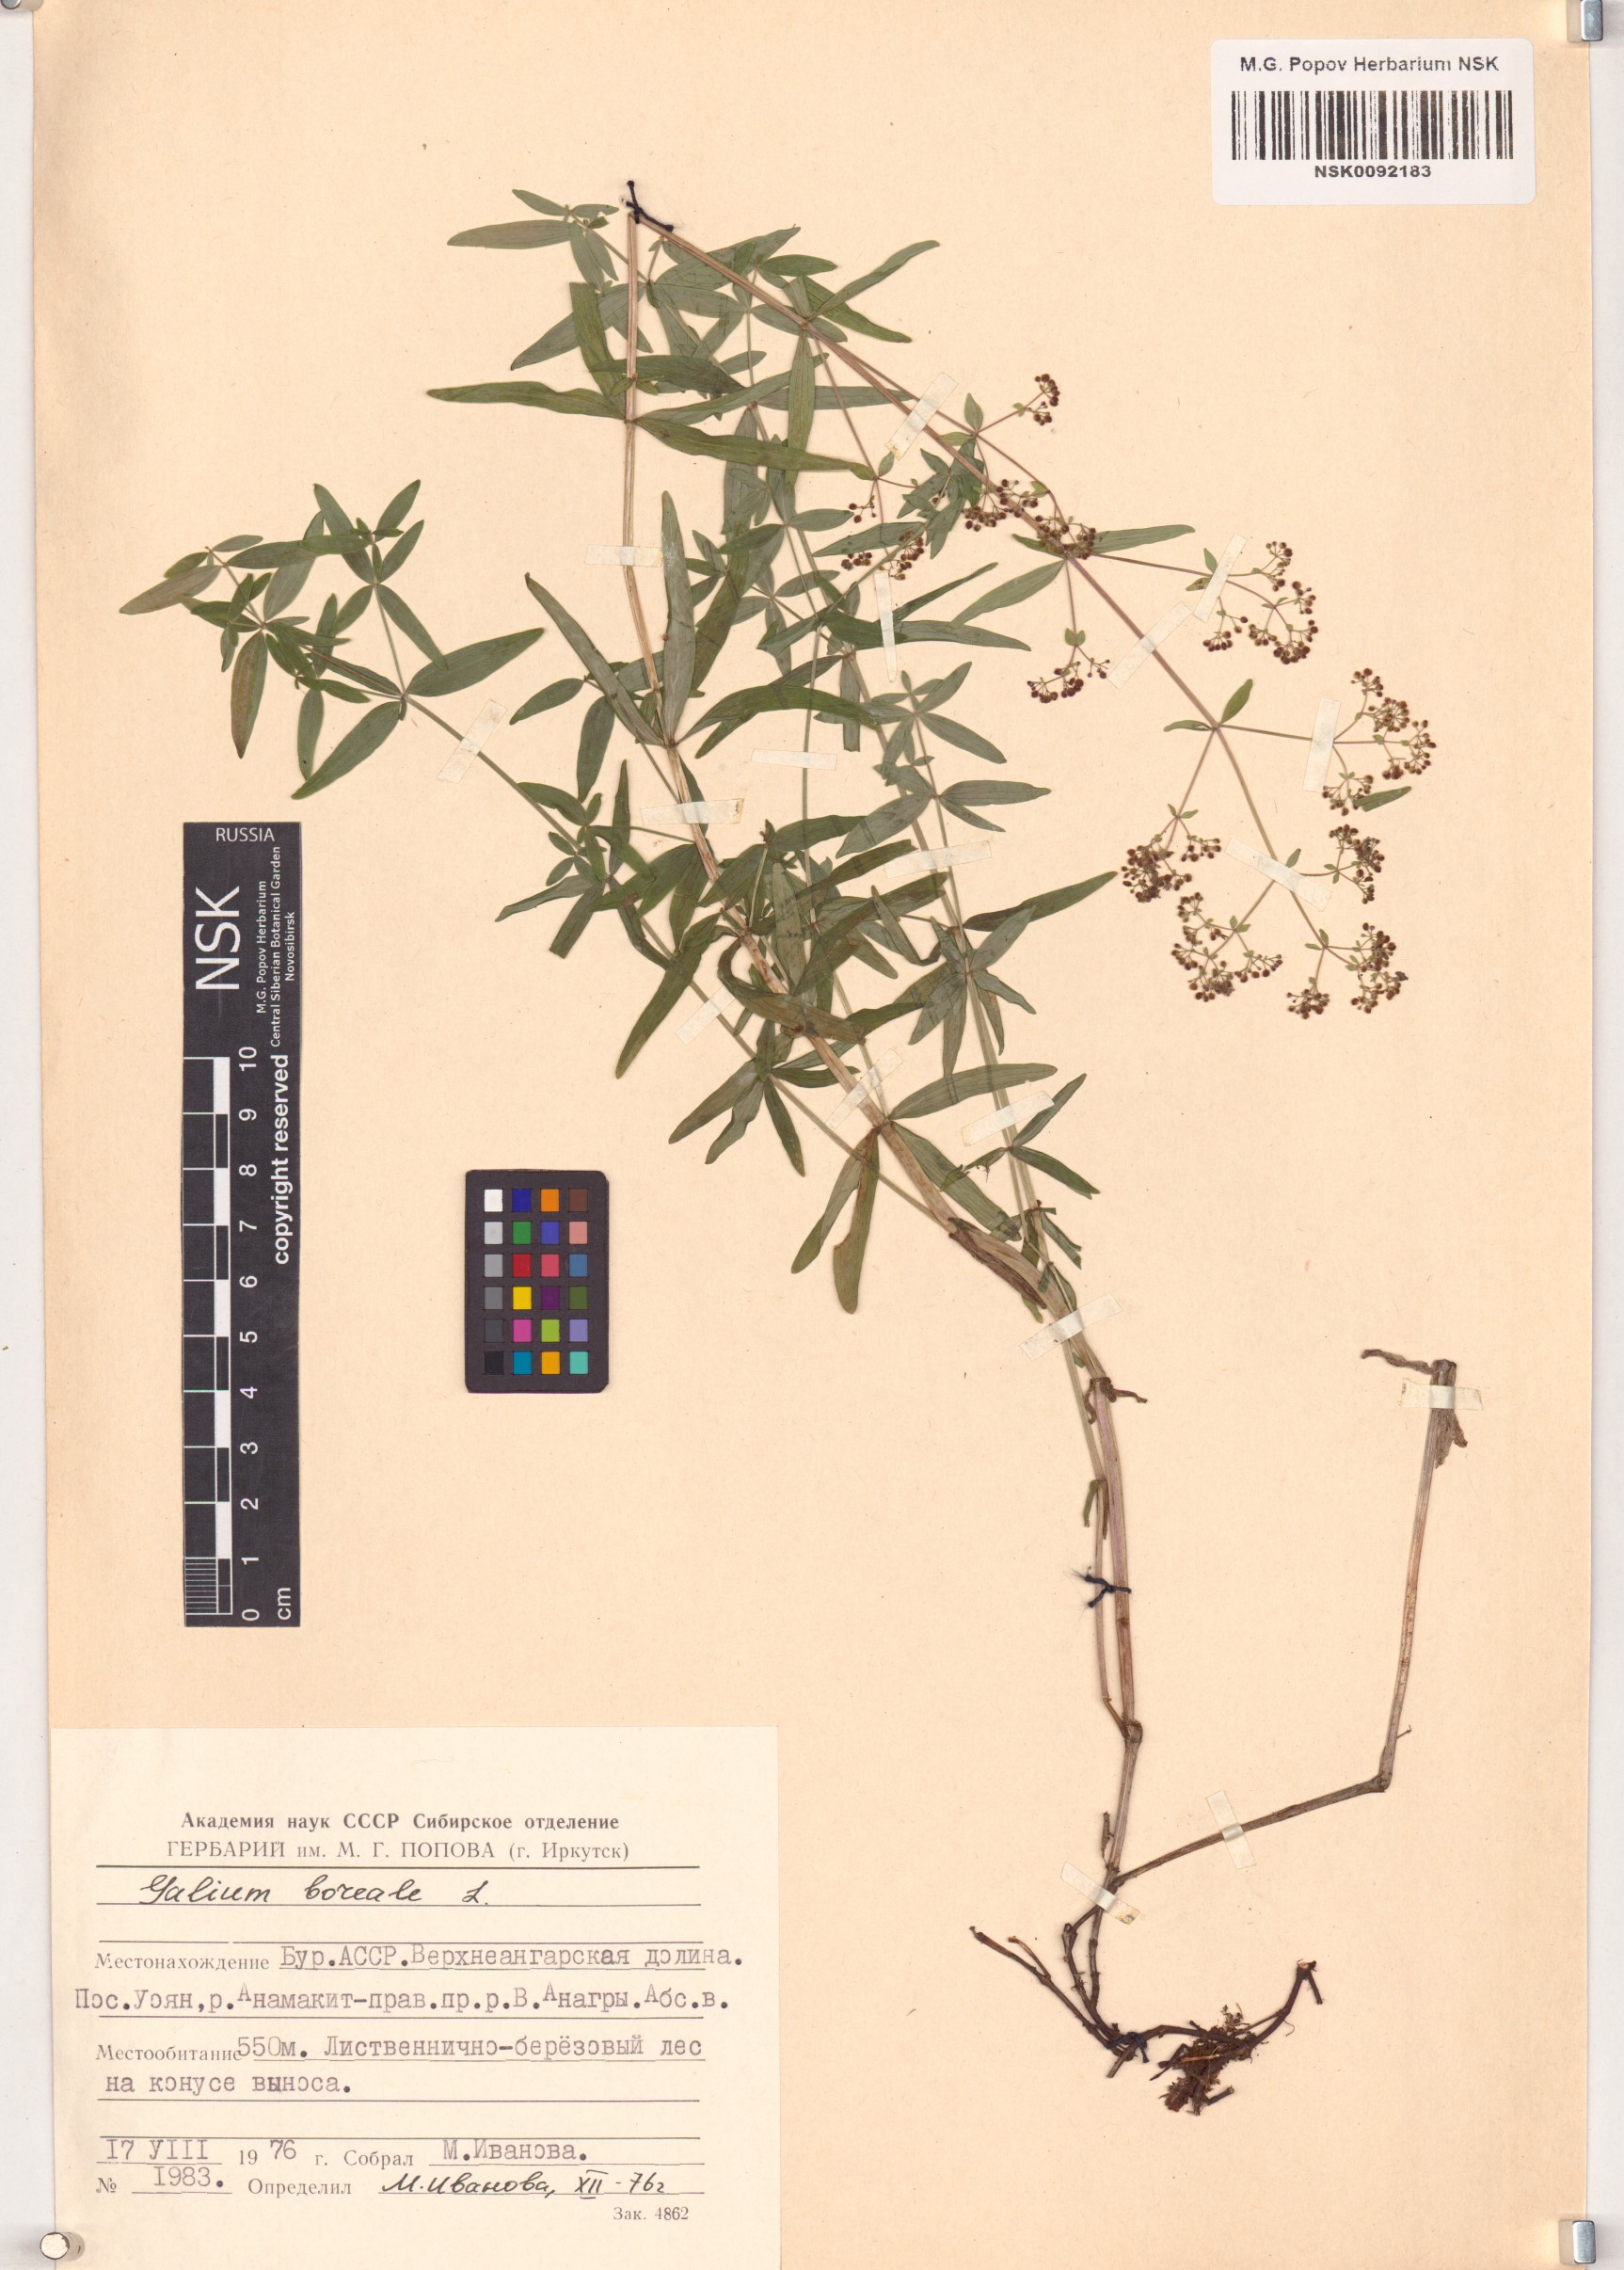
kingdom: Plantae
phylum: Tracheophyta
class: Magnoliopsida
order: Gentianales
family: Rubiaceae
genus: Galium
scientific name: Galium boreale
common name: Northern bedstraw
